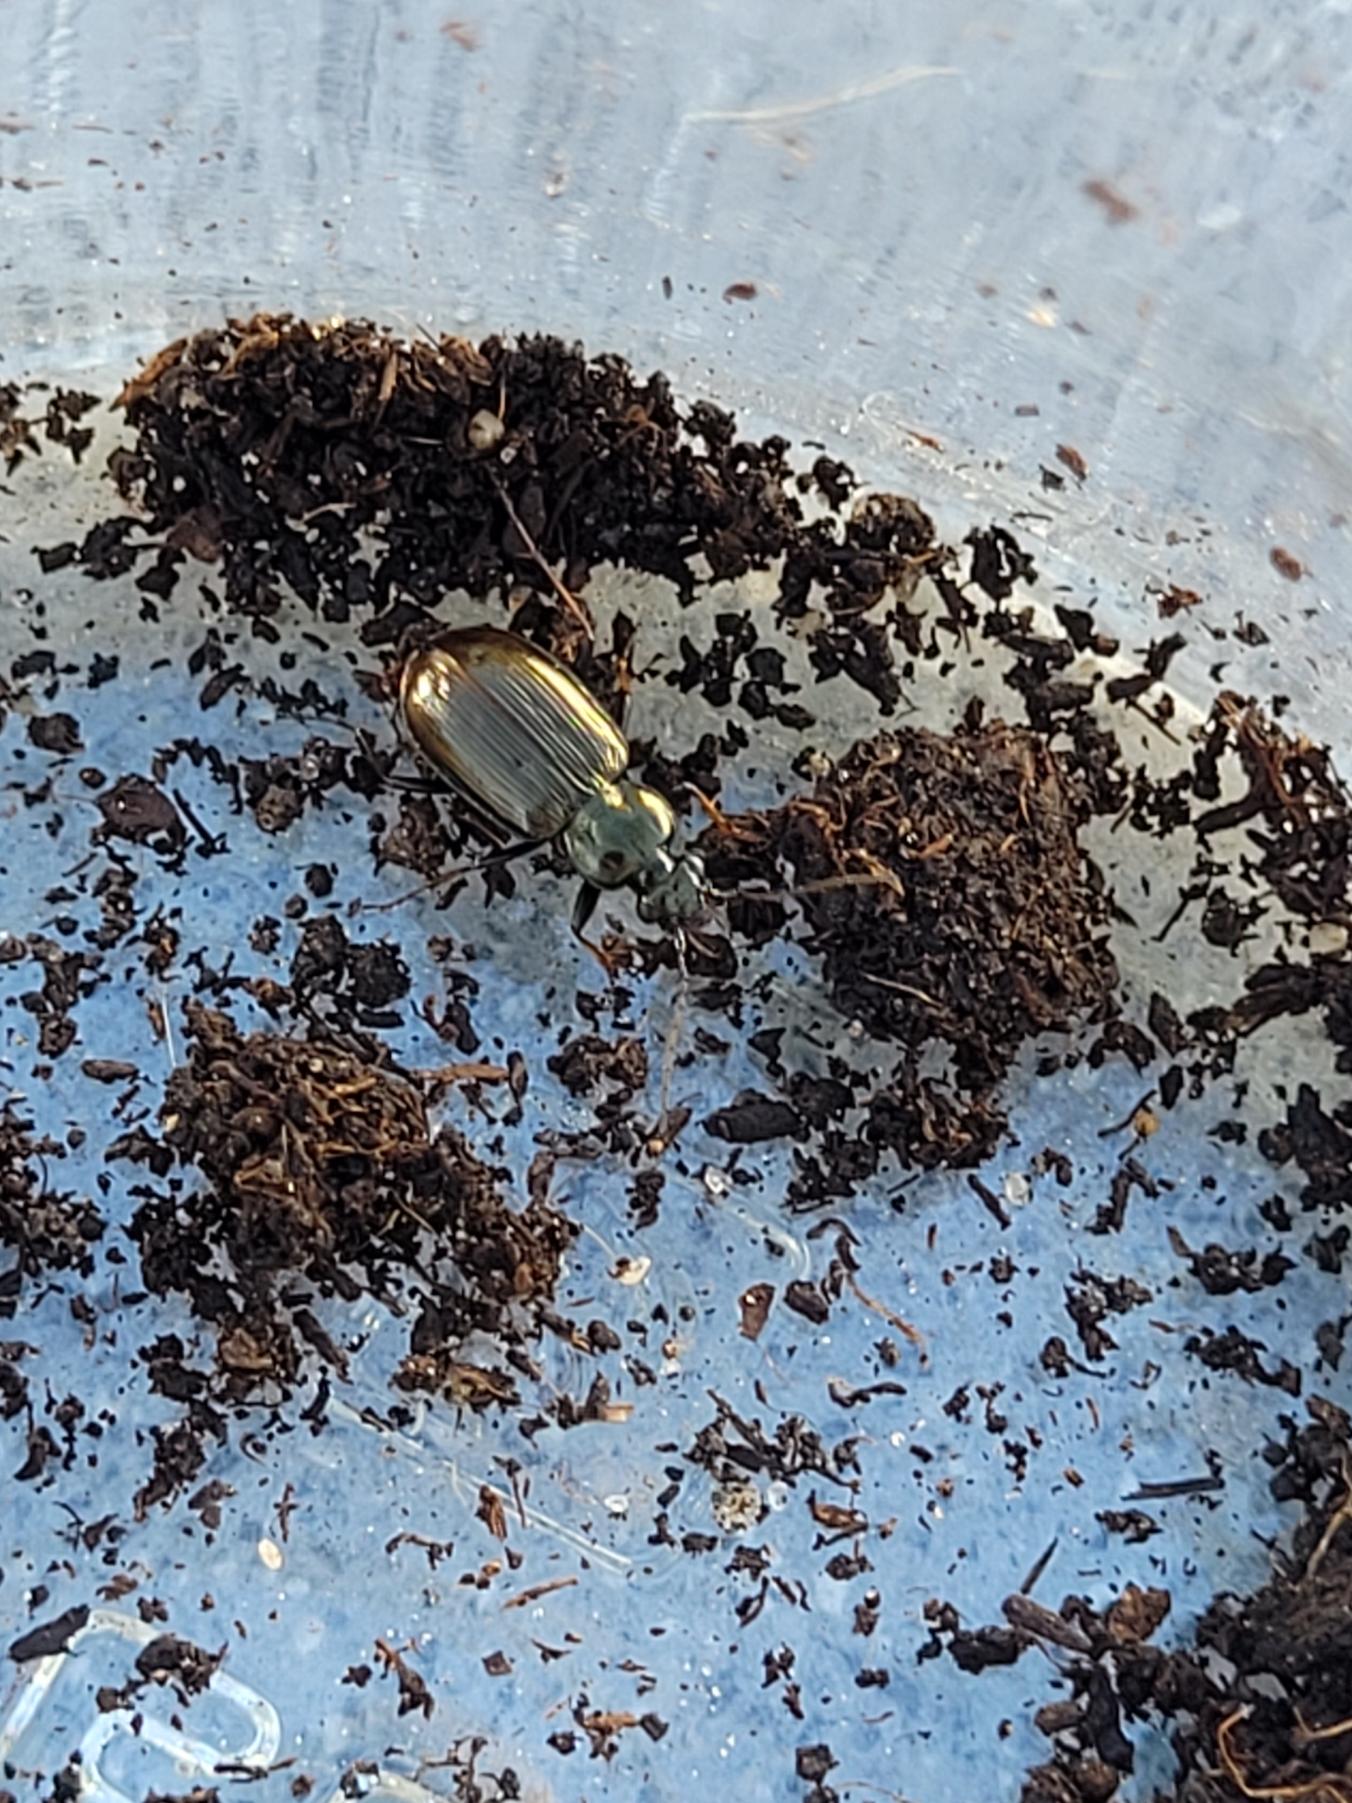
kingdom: Animalia
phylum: Arthropoda
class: Insecta
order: Coleoptera
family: Carabidae
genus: Loricera
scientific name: Loricera pilicornis
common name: Børsteløber
